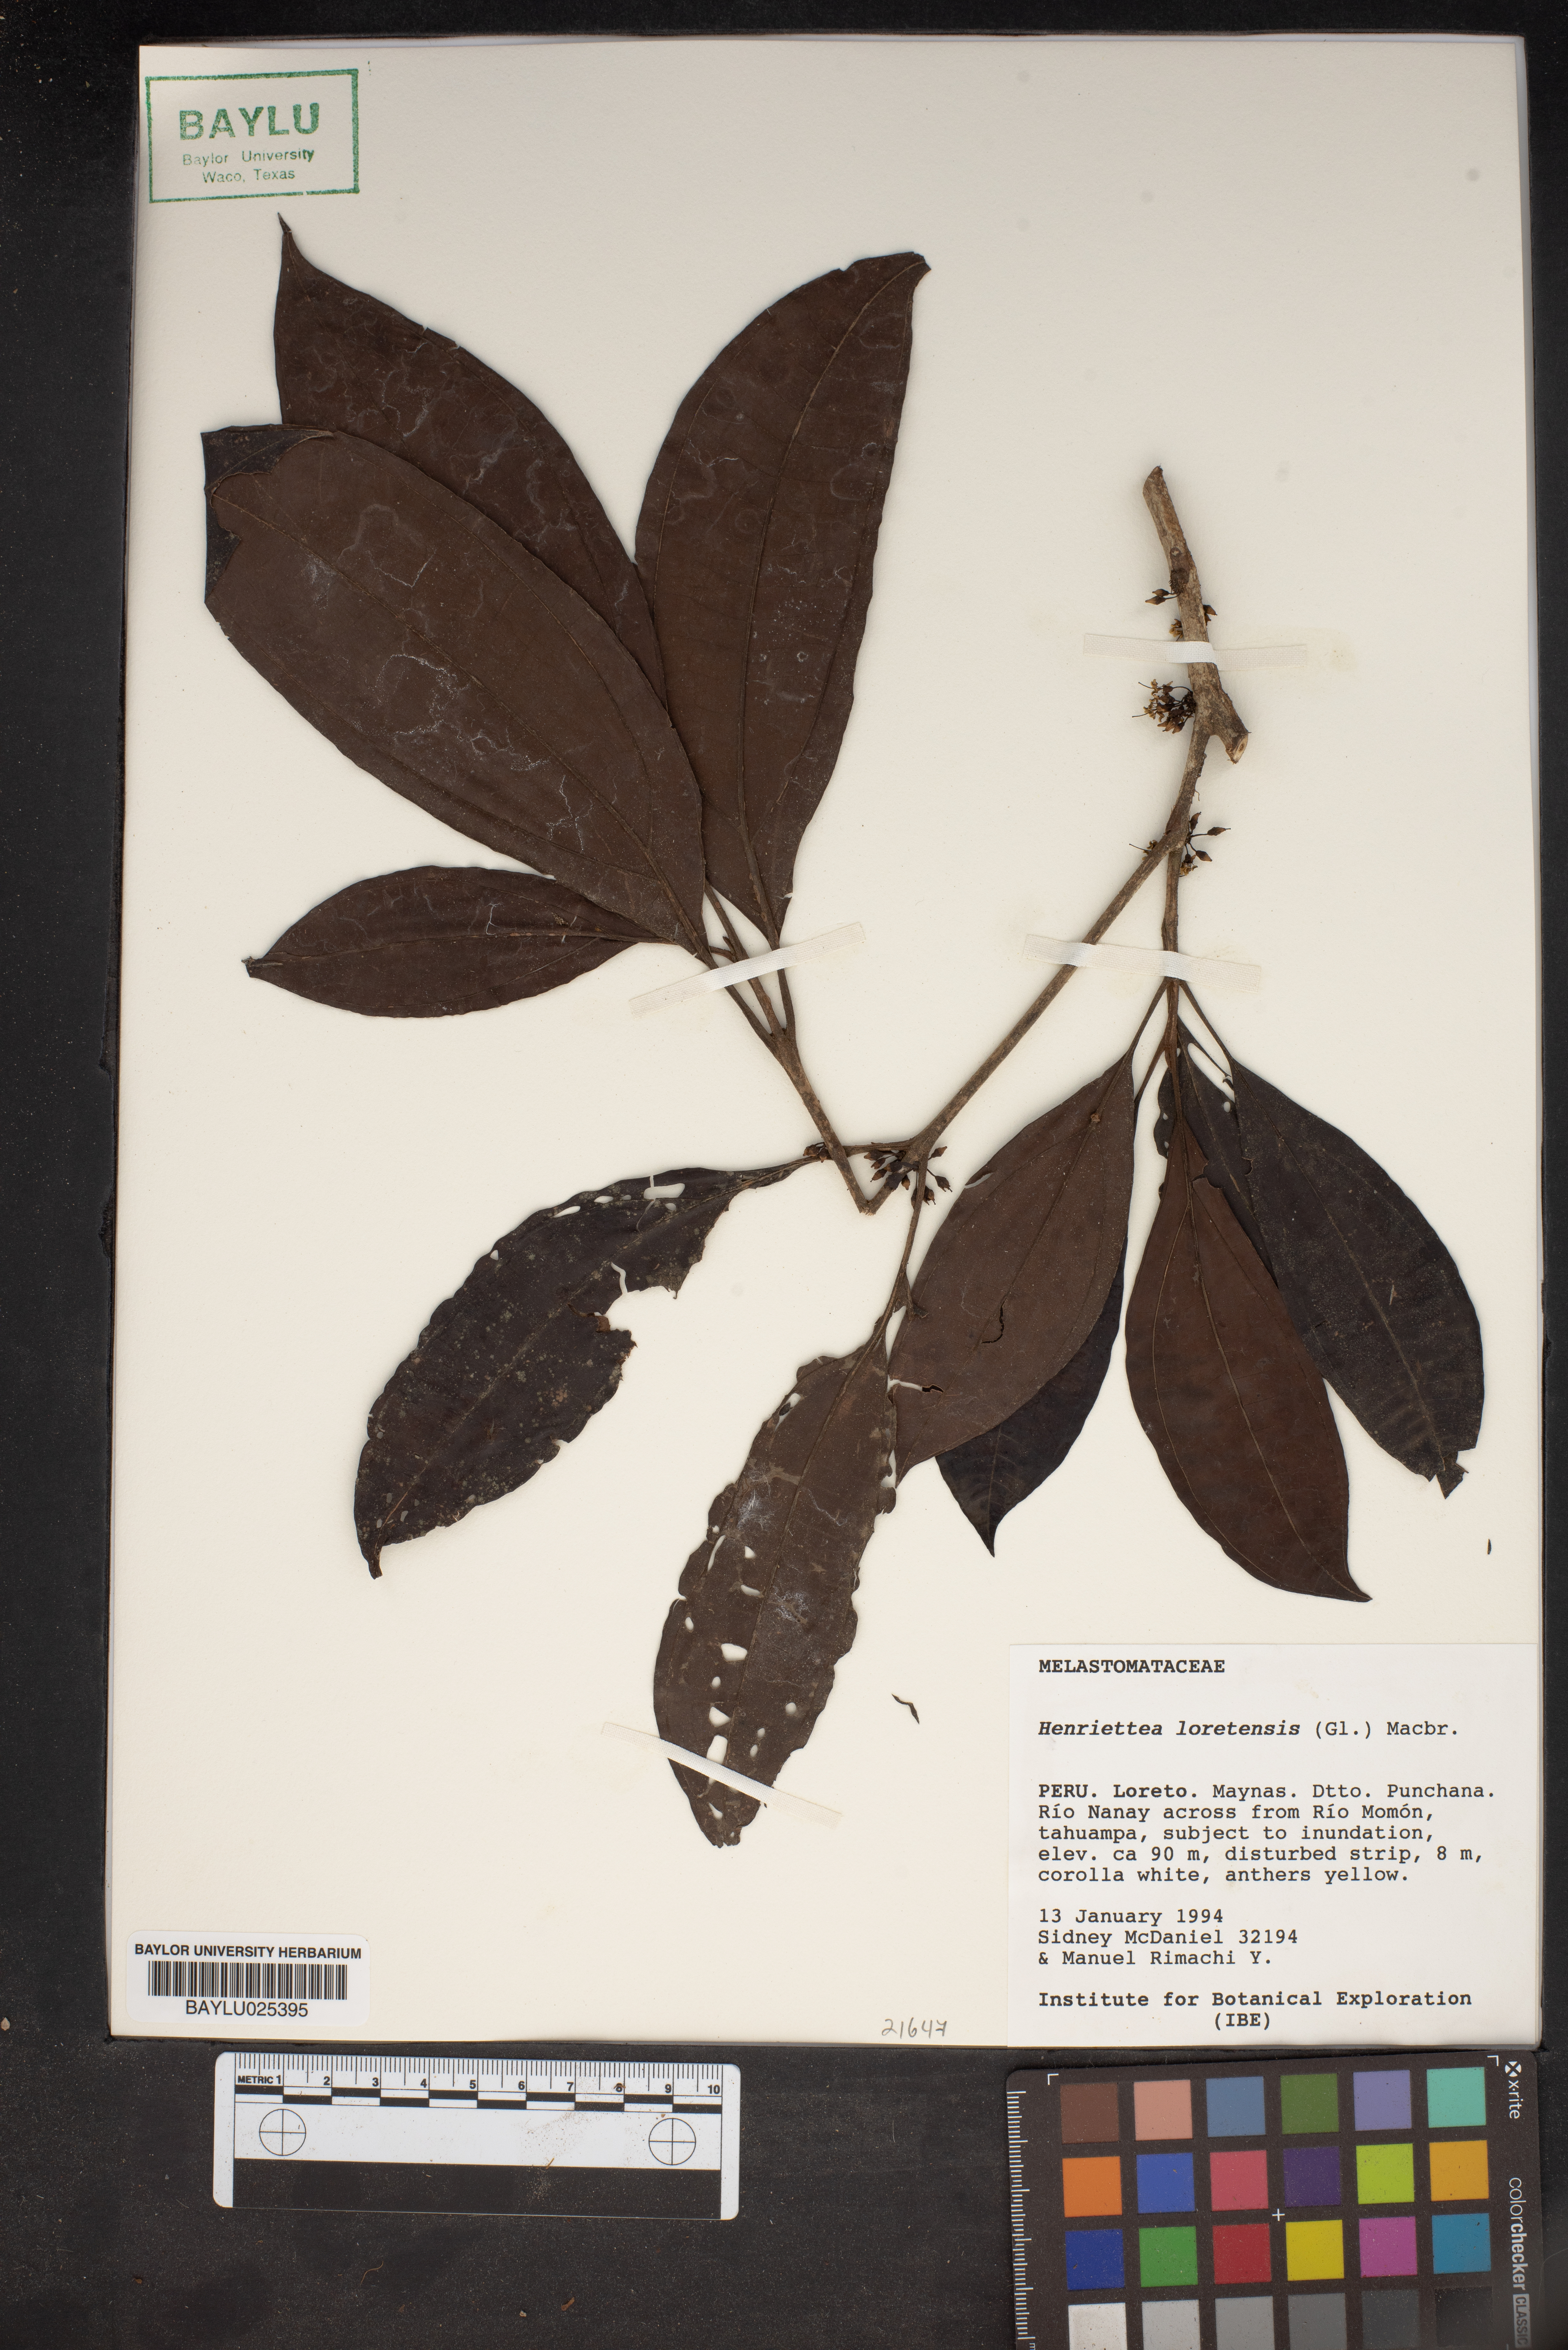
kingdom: Plantae
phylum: Tracheophyta
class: Magnoliopsida
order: Myrtales
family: Melastomataceae
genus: Henriettea
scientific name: Henriettea loretensis
